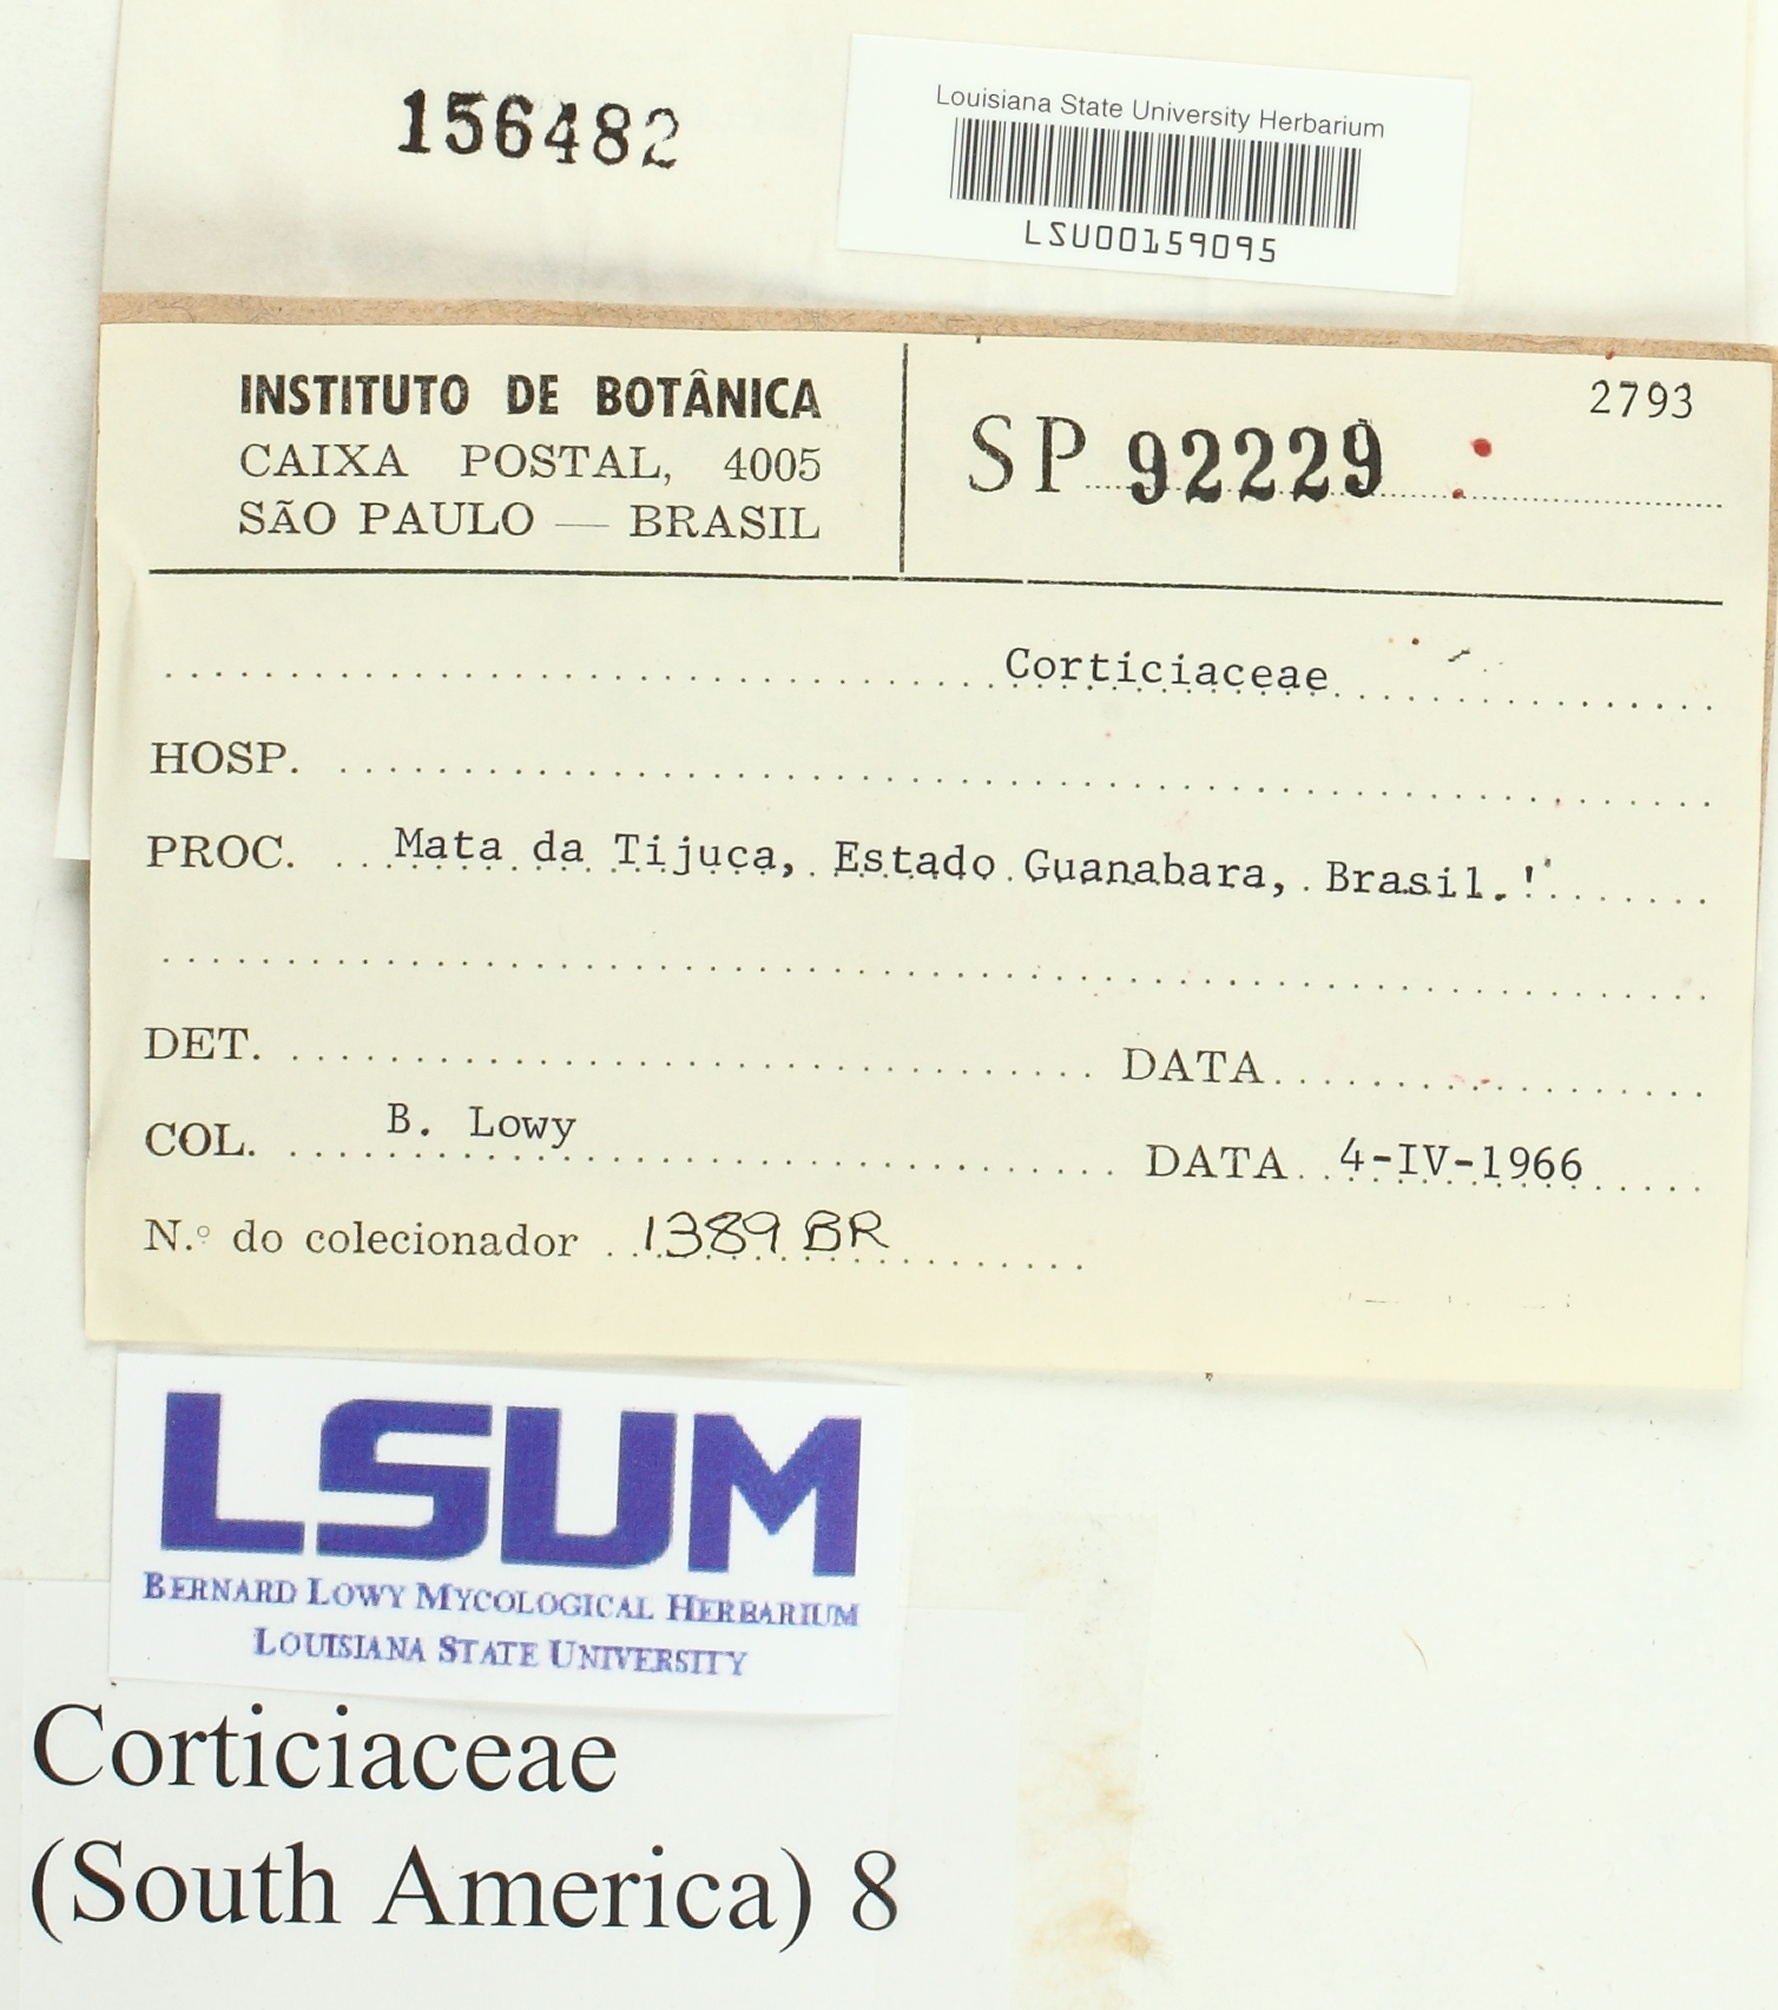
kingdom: Fungi
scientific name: Fungi
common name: Fungi
